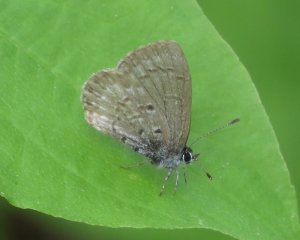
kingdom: Animalia
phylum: Arthropoda
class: Insecta
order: Lepidoptera
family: Lycaenidae
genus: Celastrina
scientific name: Celastrina lucia
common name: Northern Spring Azure
